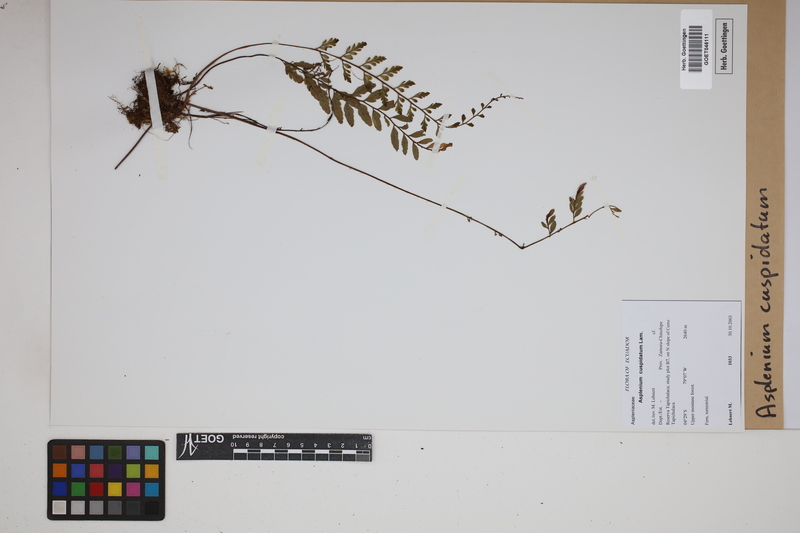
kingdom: Plantae
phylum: Tracheophyta
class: Polypodiopsida
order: Polypodiales
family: Aspleniaceae
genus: Asplenium
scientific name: Asplenium cuspidatum
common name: Eared spleenwort
